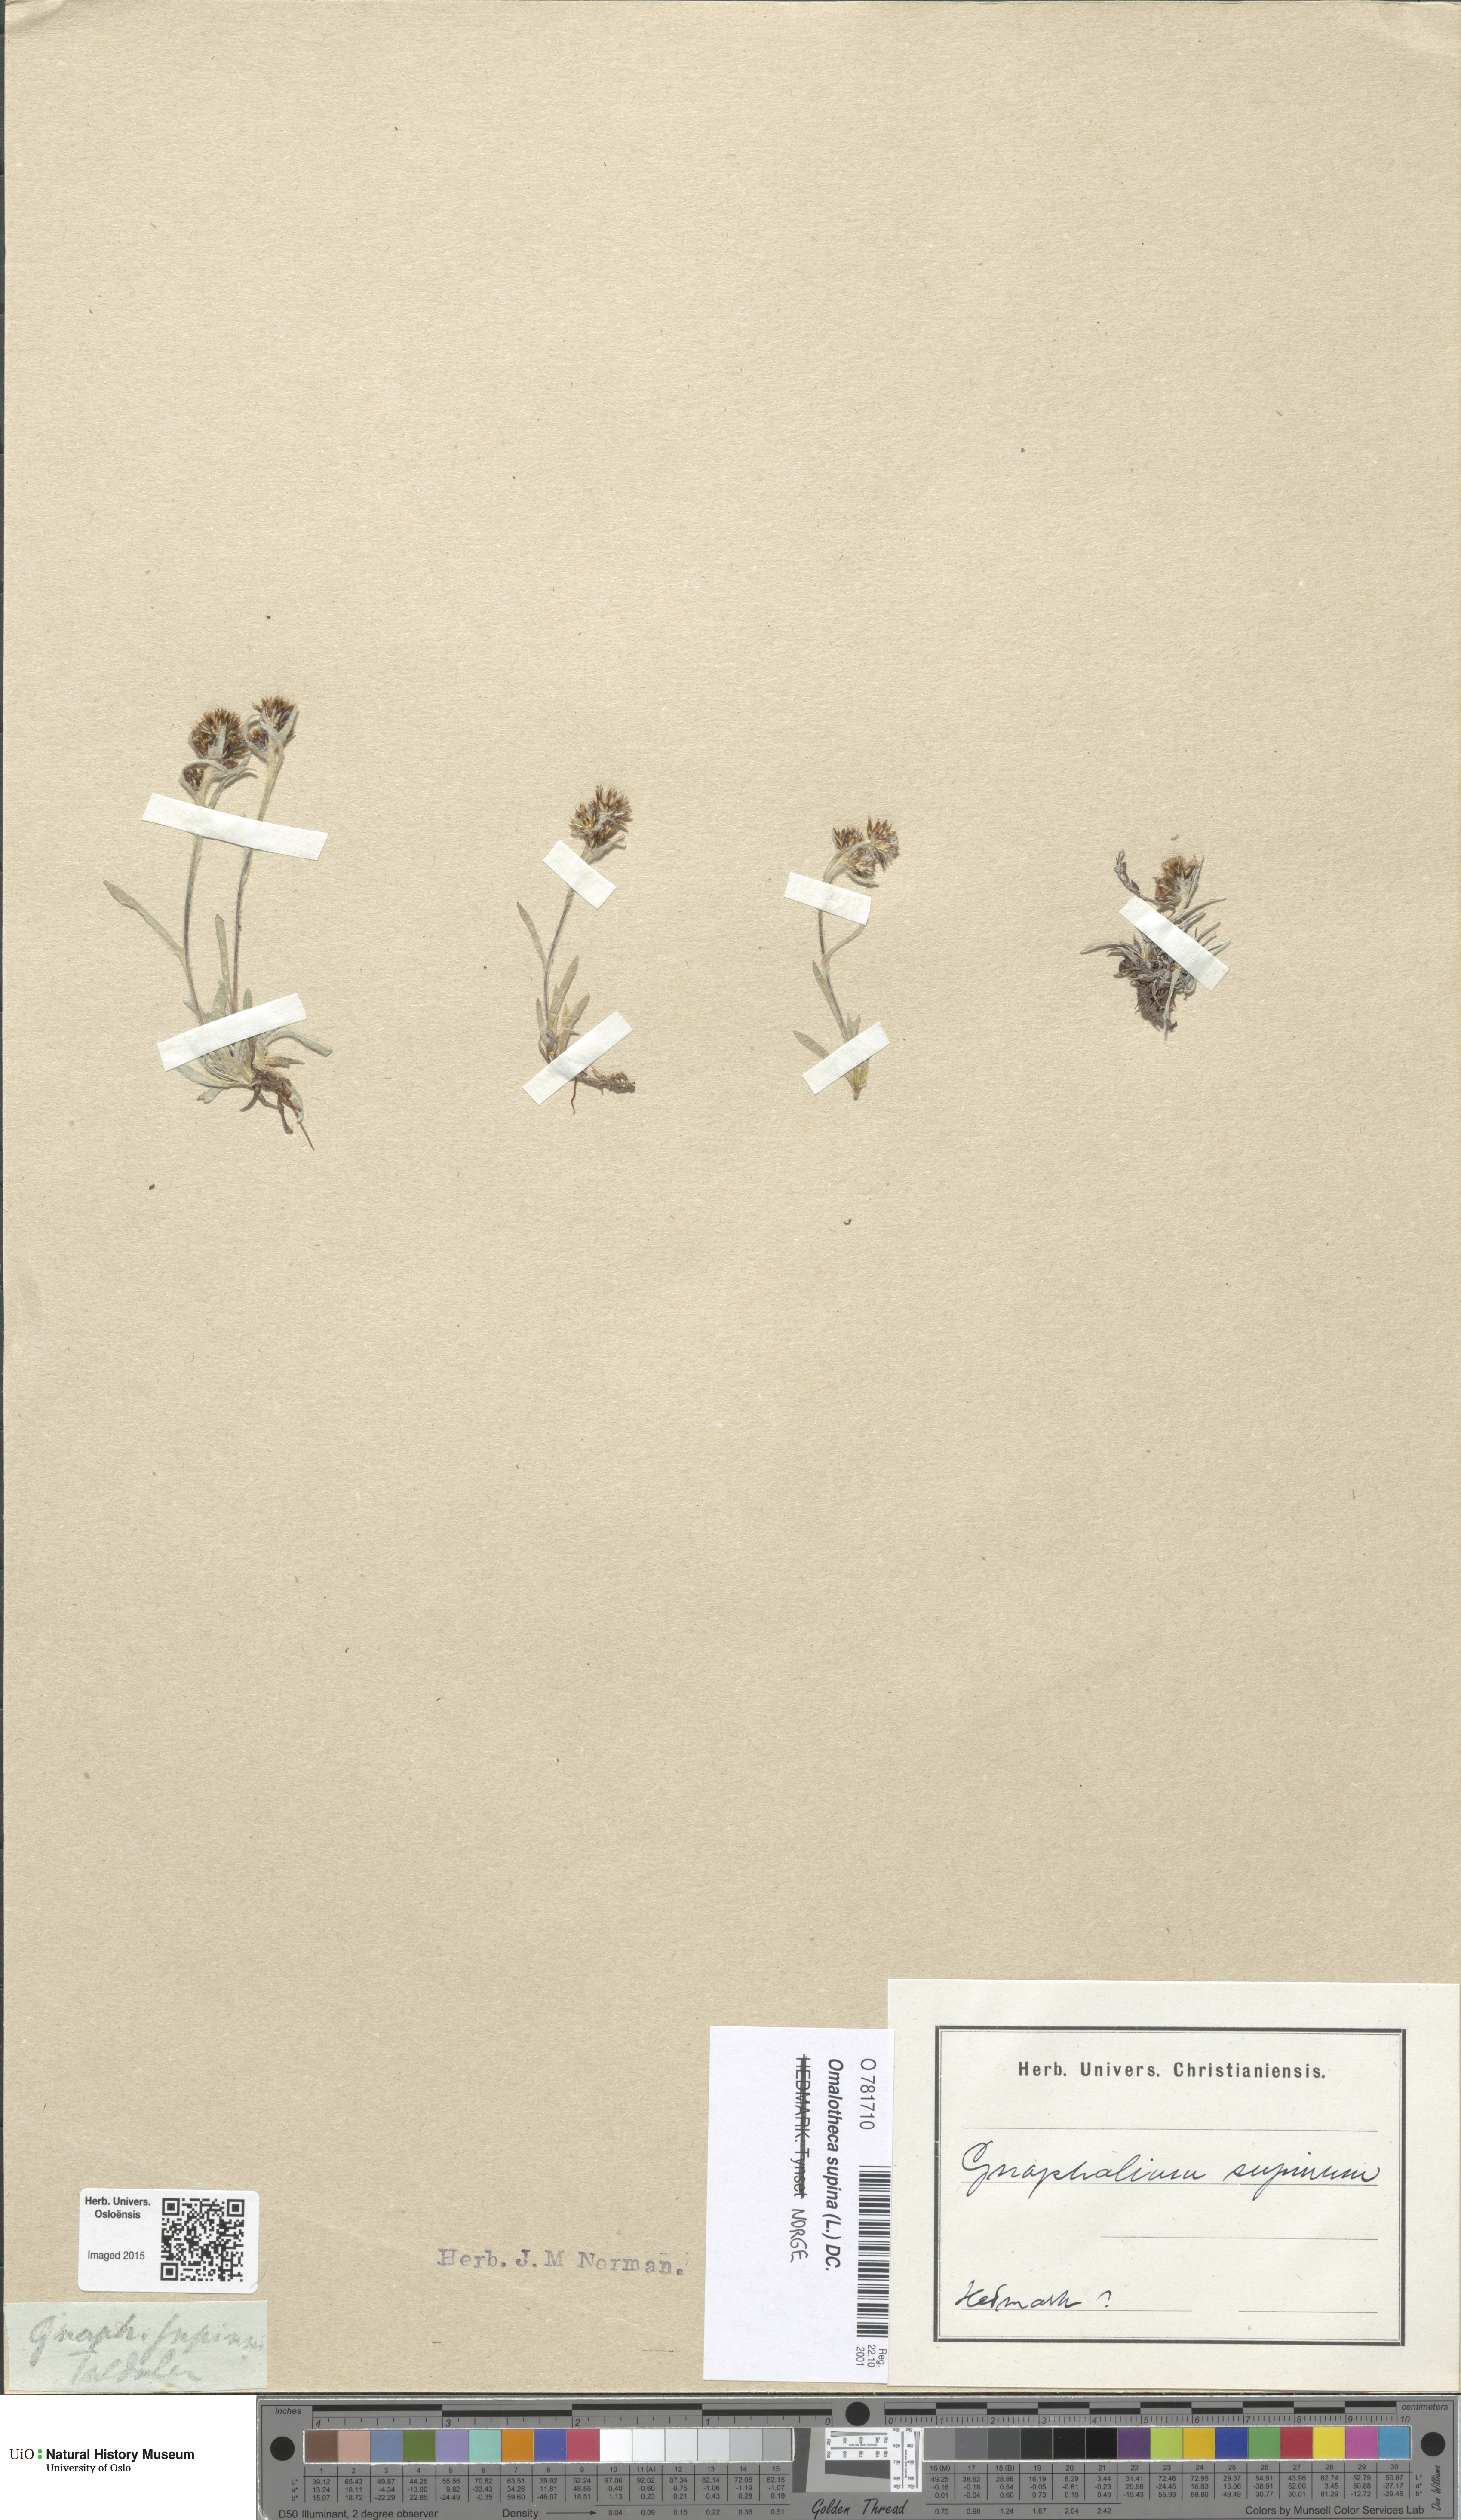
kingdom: Plantae
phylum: Tracheophyta
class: Magnoliopsida
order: Asterales
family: Asteraceae
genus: Omalotheca
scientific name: Omalotheca supina
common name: Alpine arctic-cudweed
